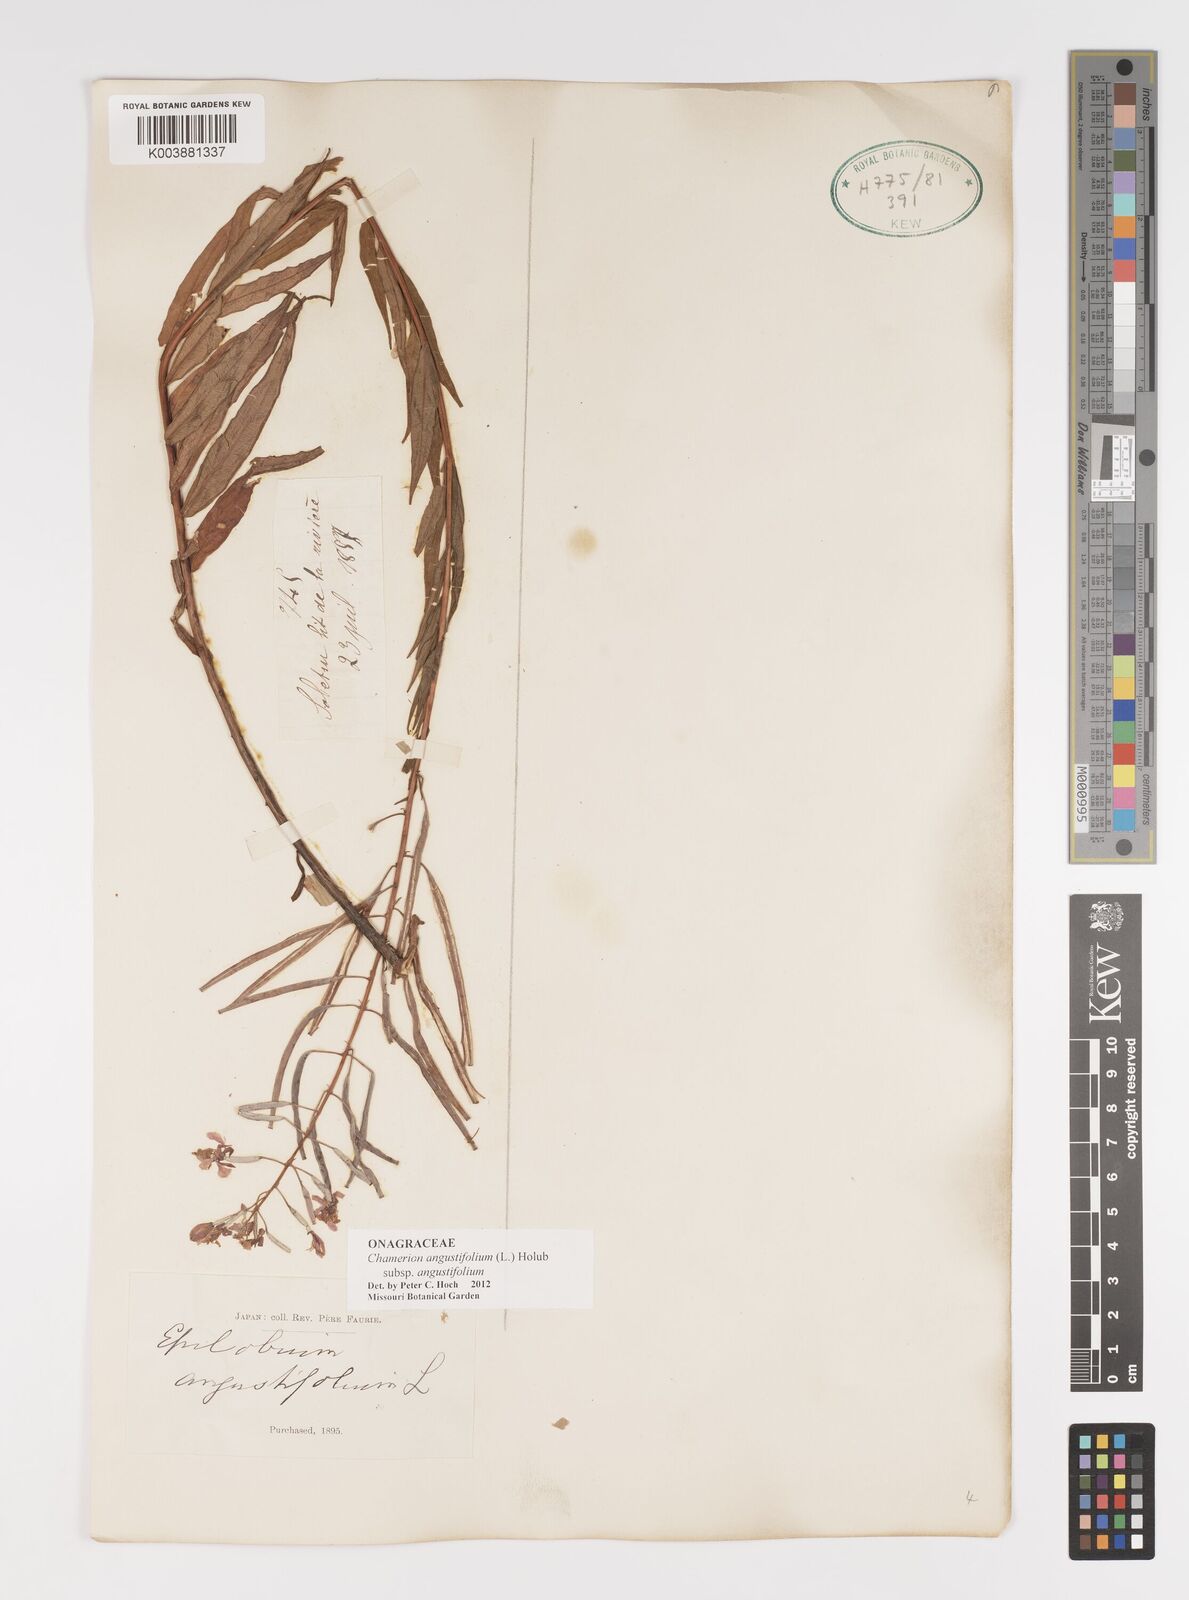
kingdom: Plantae
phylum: Tracheophyta
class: Magnoliopsida
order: Myrtales
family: Onagraceae
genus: Chamaenerion
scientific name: Chamaenerion angustifolium
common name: Fireweed
